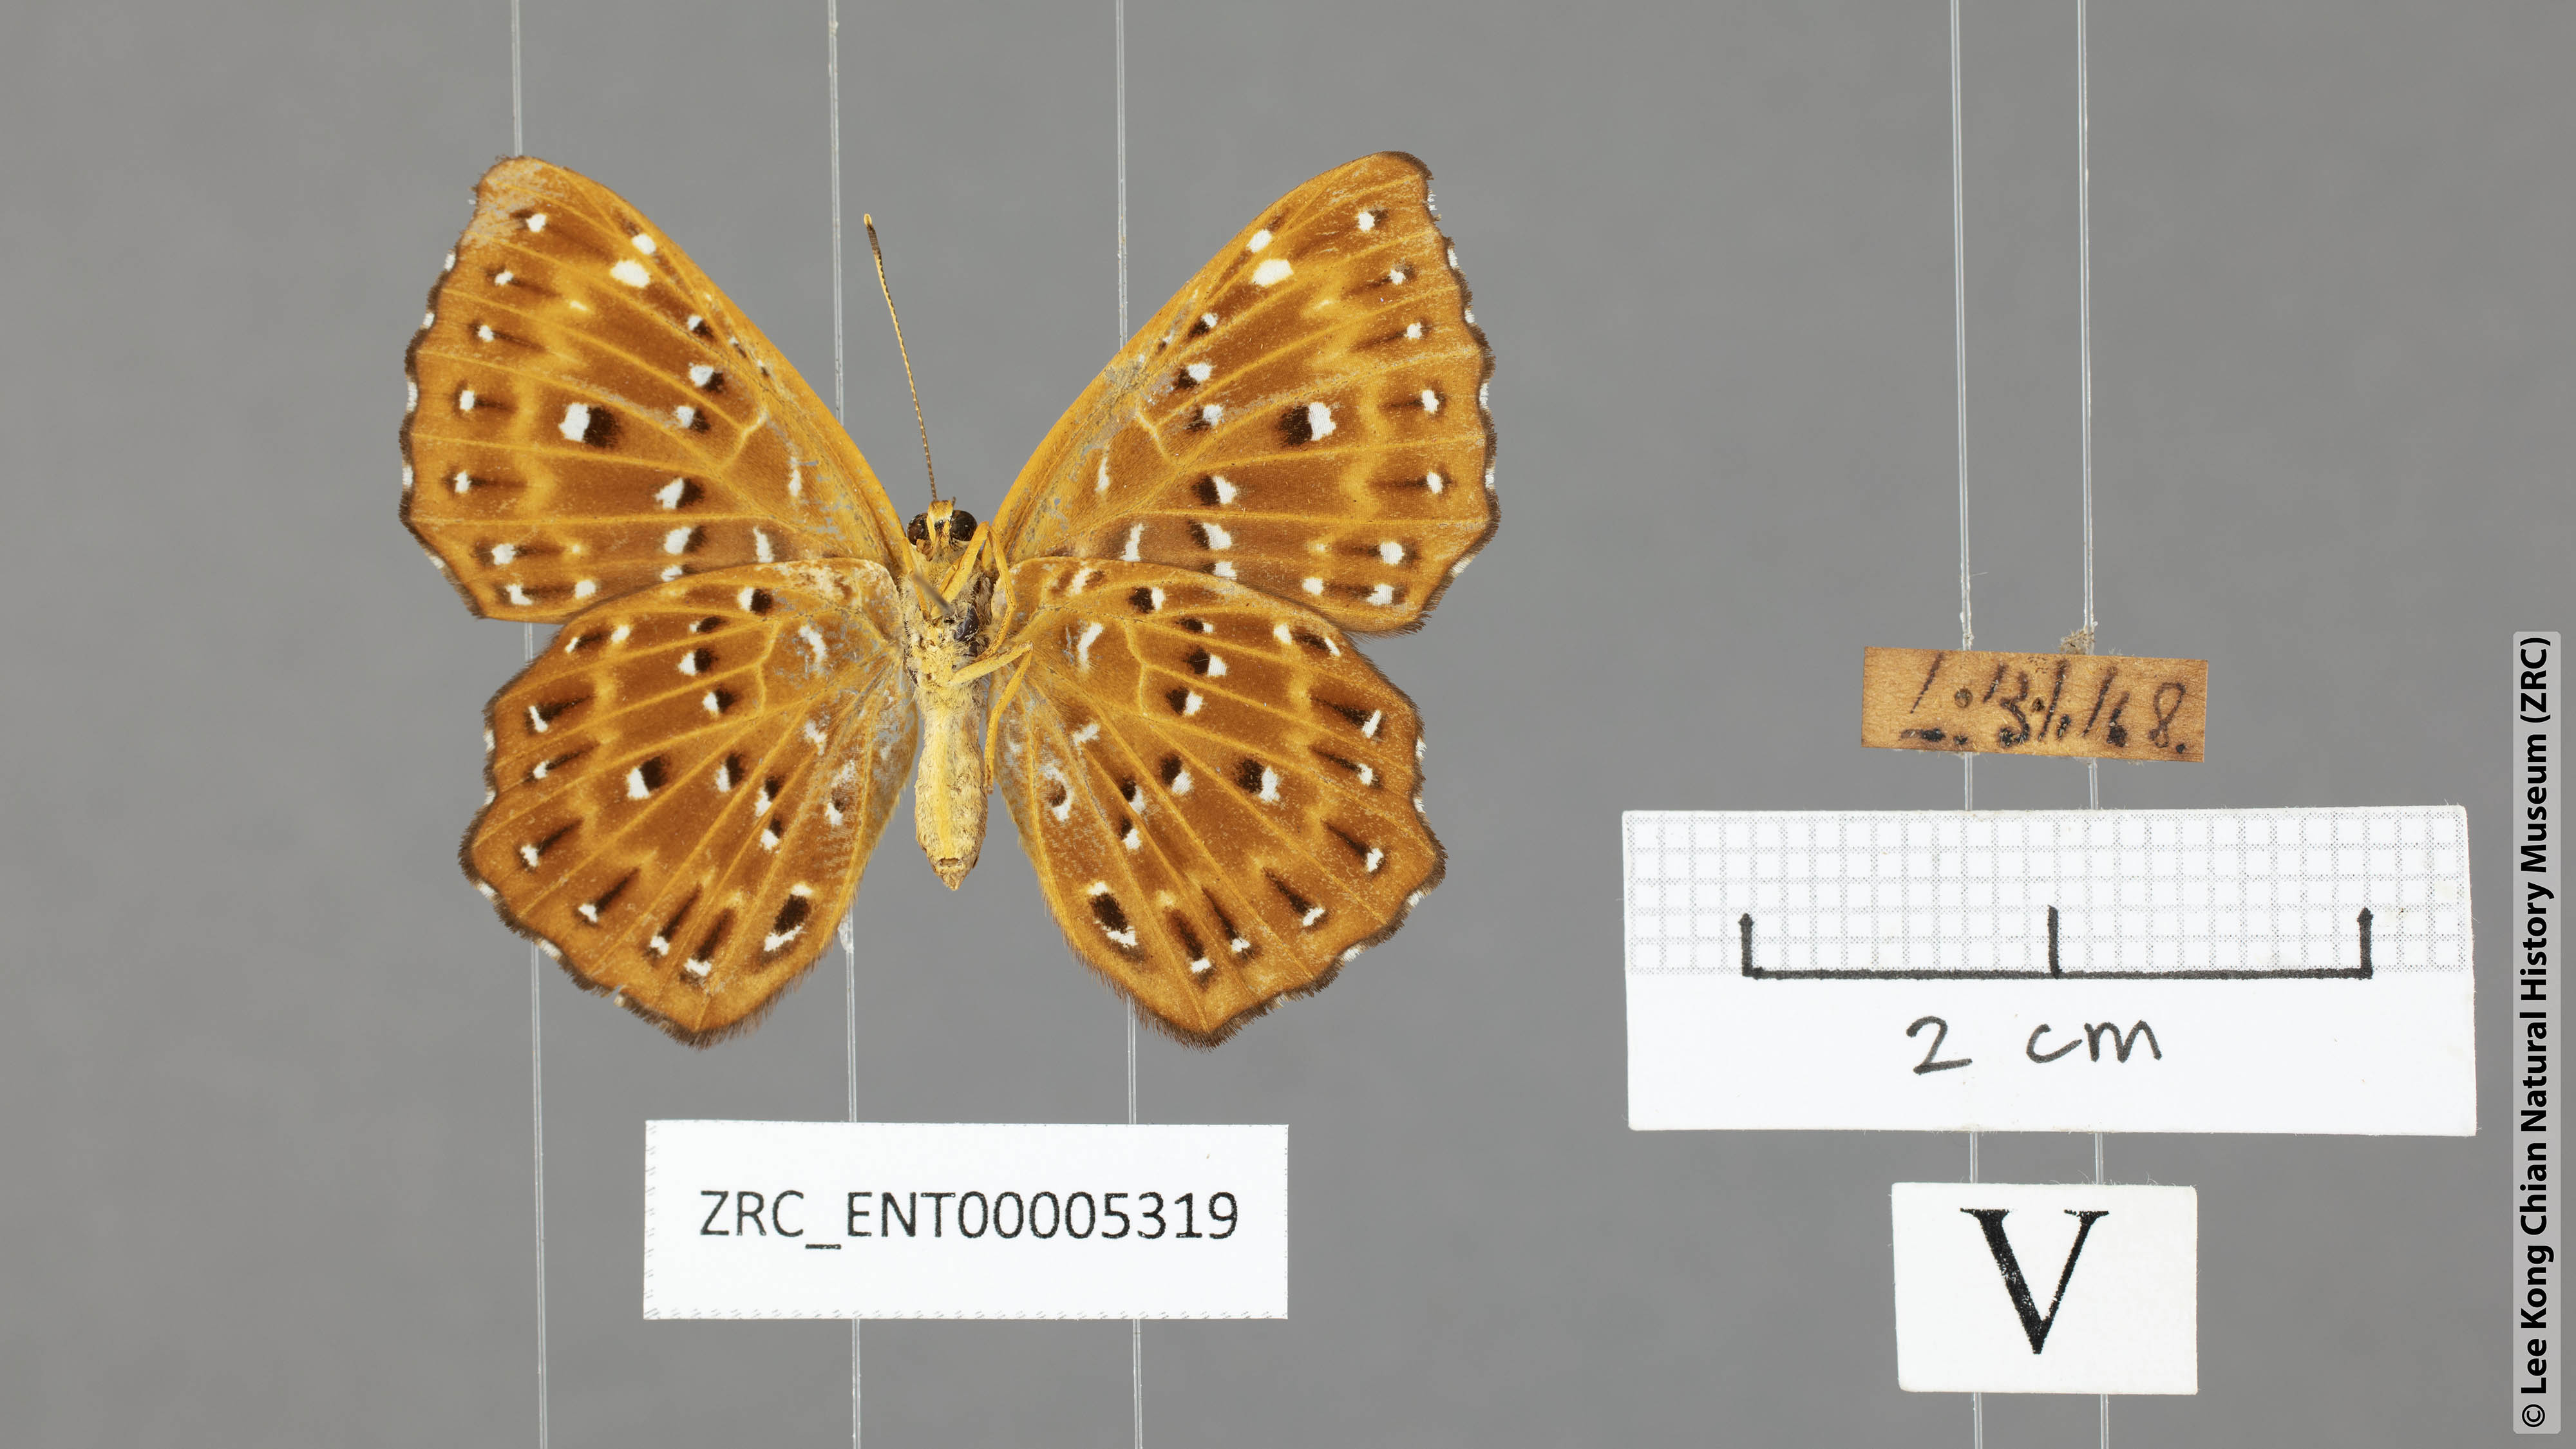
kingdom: Animalia
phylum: Arthropoda
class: Insecta
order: Lepidoptera
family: Riodinidae
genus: Zemeros
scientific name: Zemeros flegyas
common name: Punchinello
